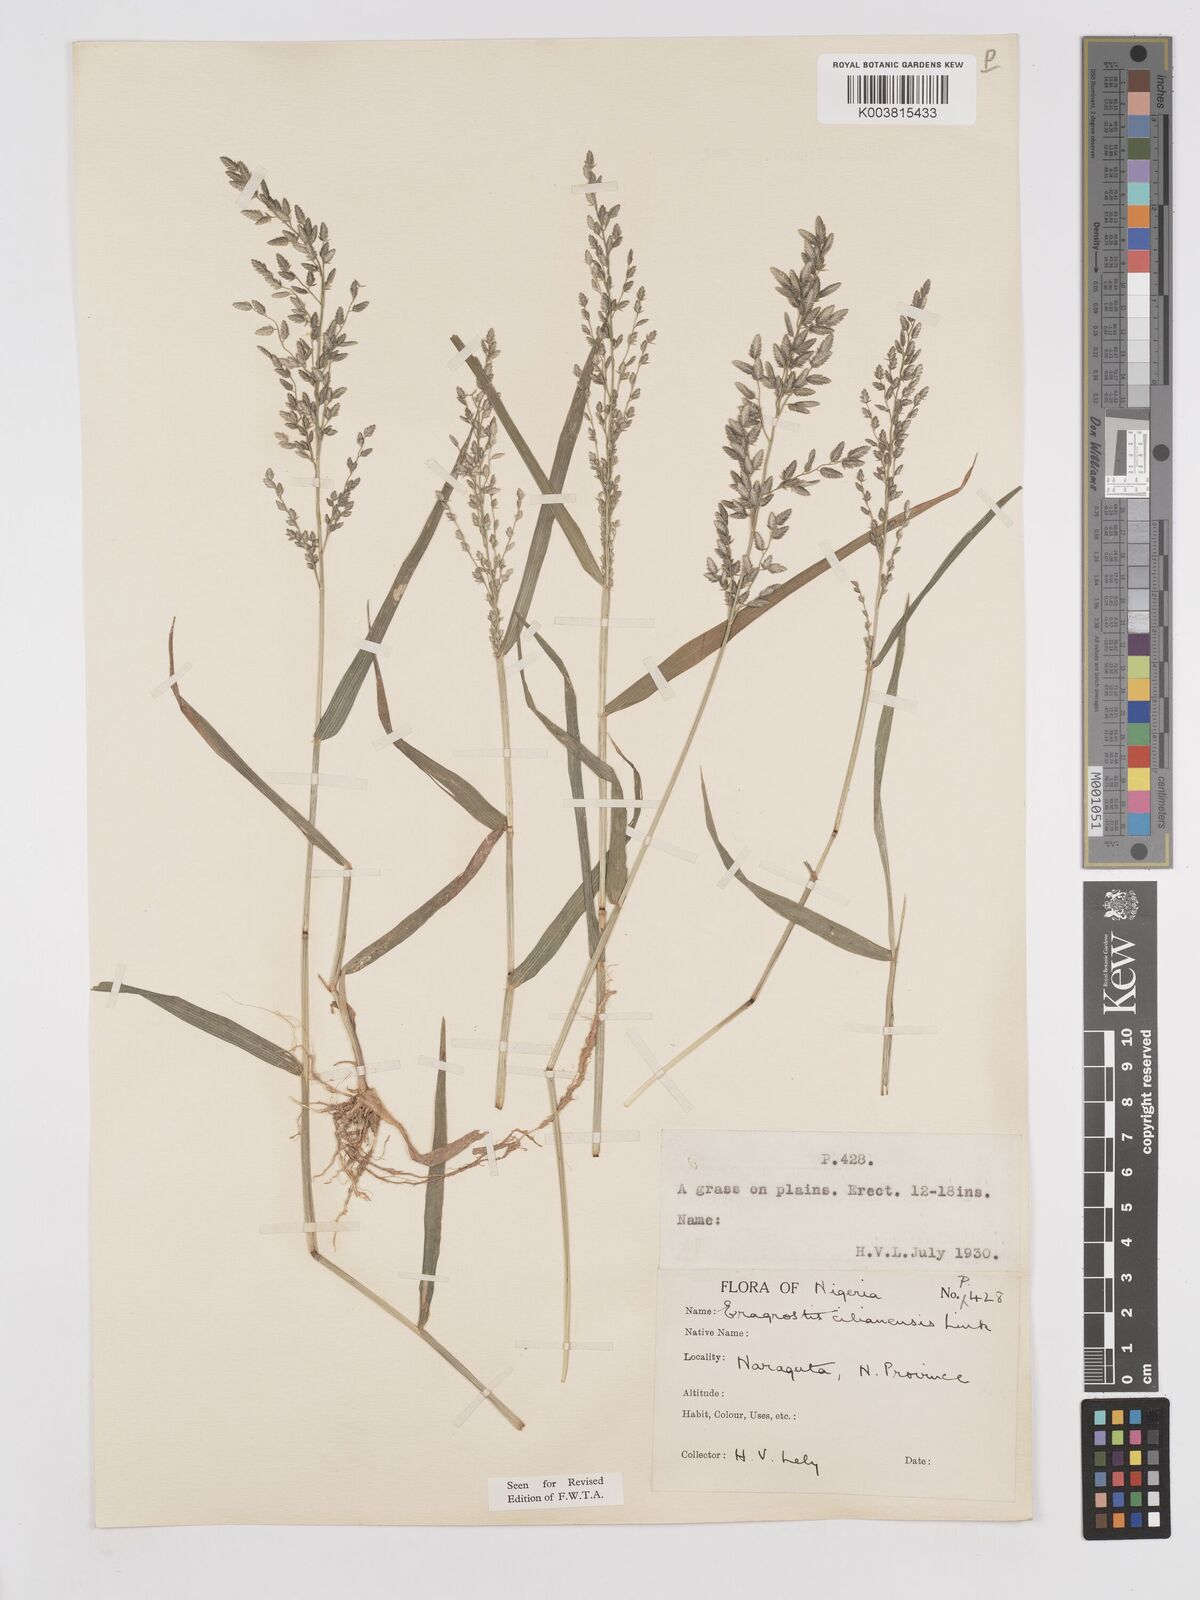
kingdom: Plantae
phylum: Tracheophyta
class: Liliopsida
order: Poales
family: Poaceae
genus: Eragrostis
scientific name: Eragrostis cilianensis
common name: Stinkgrass
